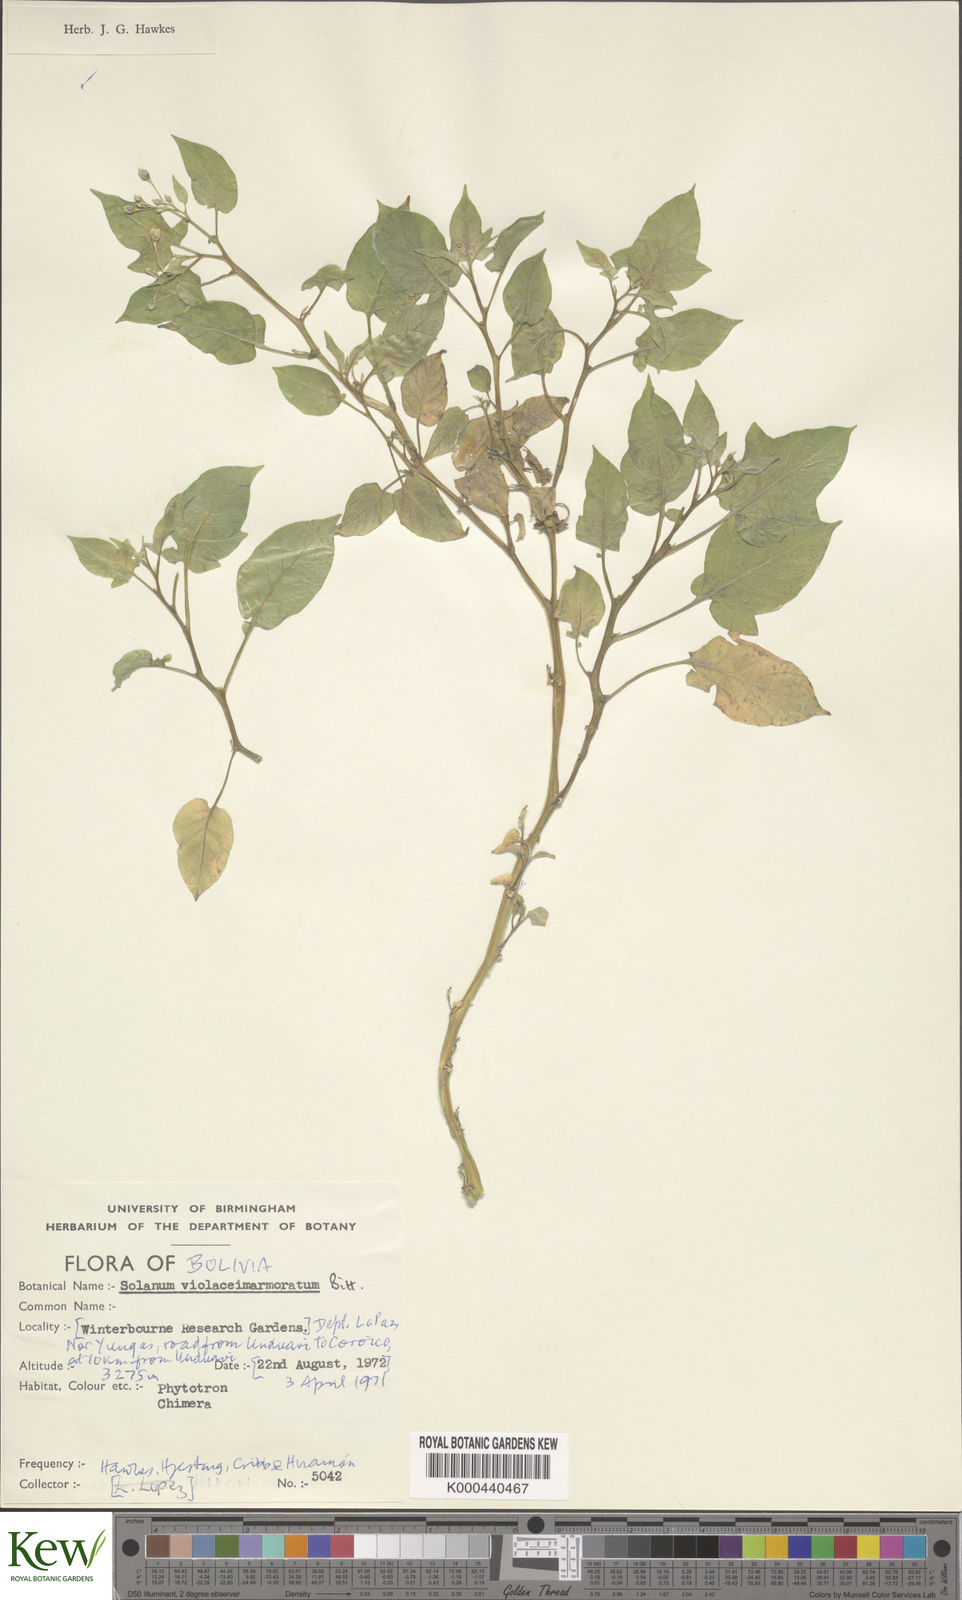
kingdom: Plantae
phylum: Tracheophyta
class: Magnoliopsida
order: Solanales
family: Solanaceae
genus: Solanum
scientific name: Solanum violaceimarmoratum
